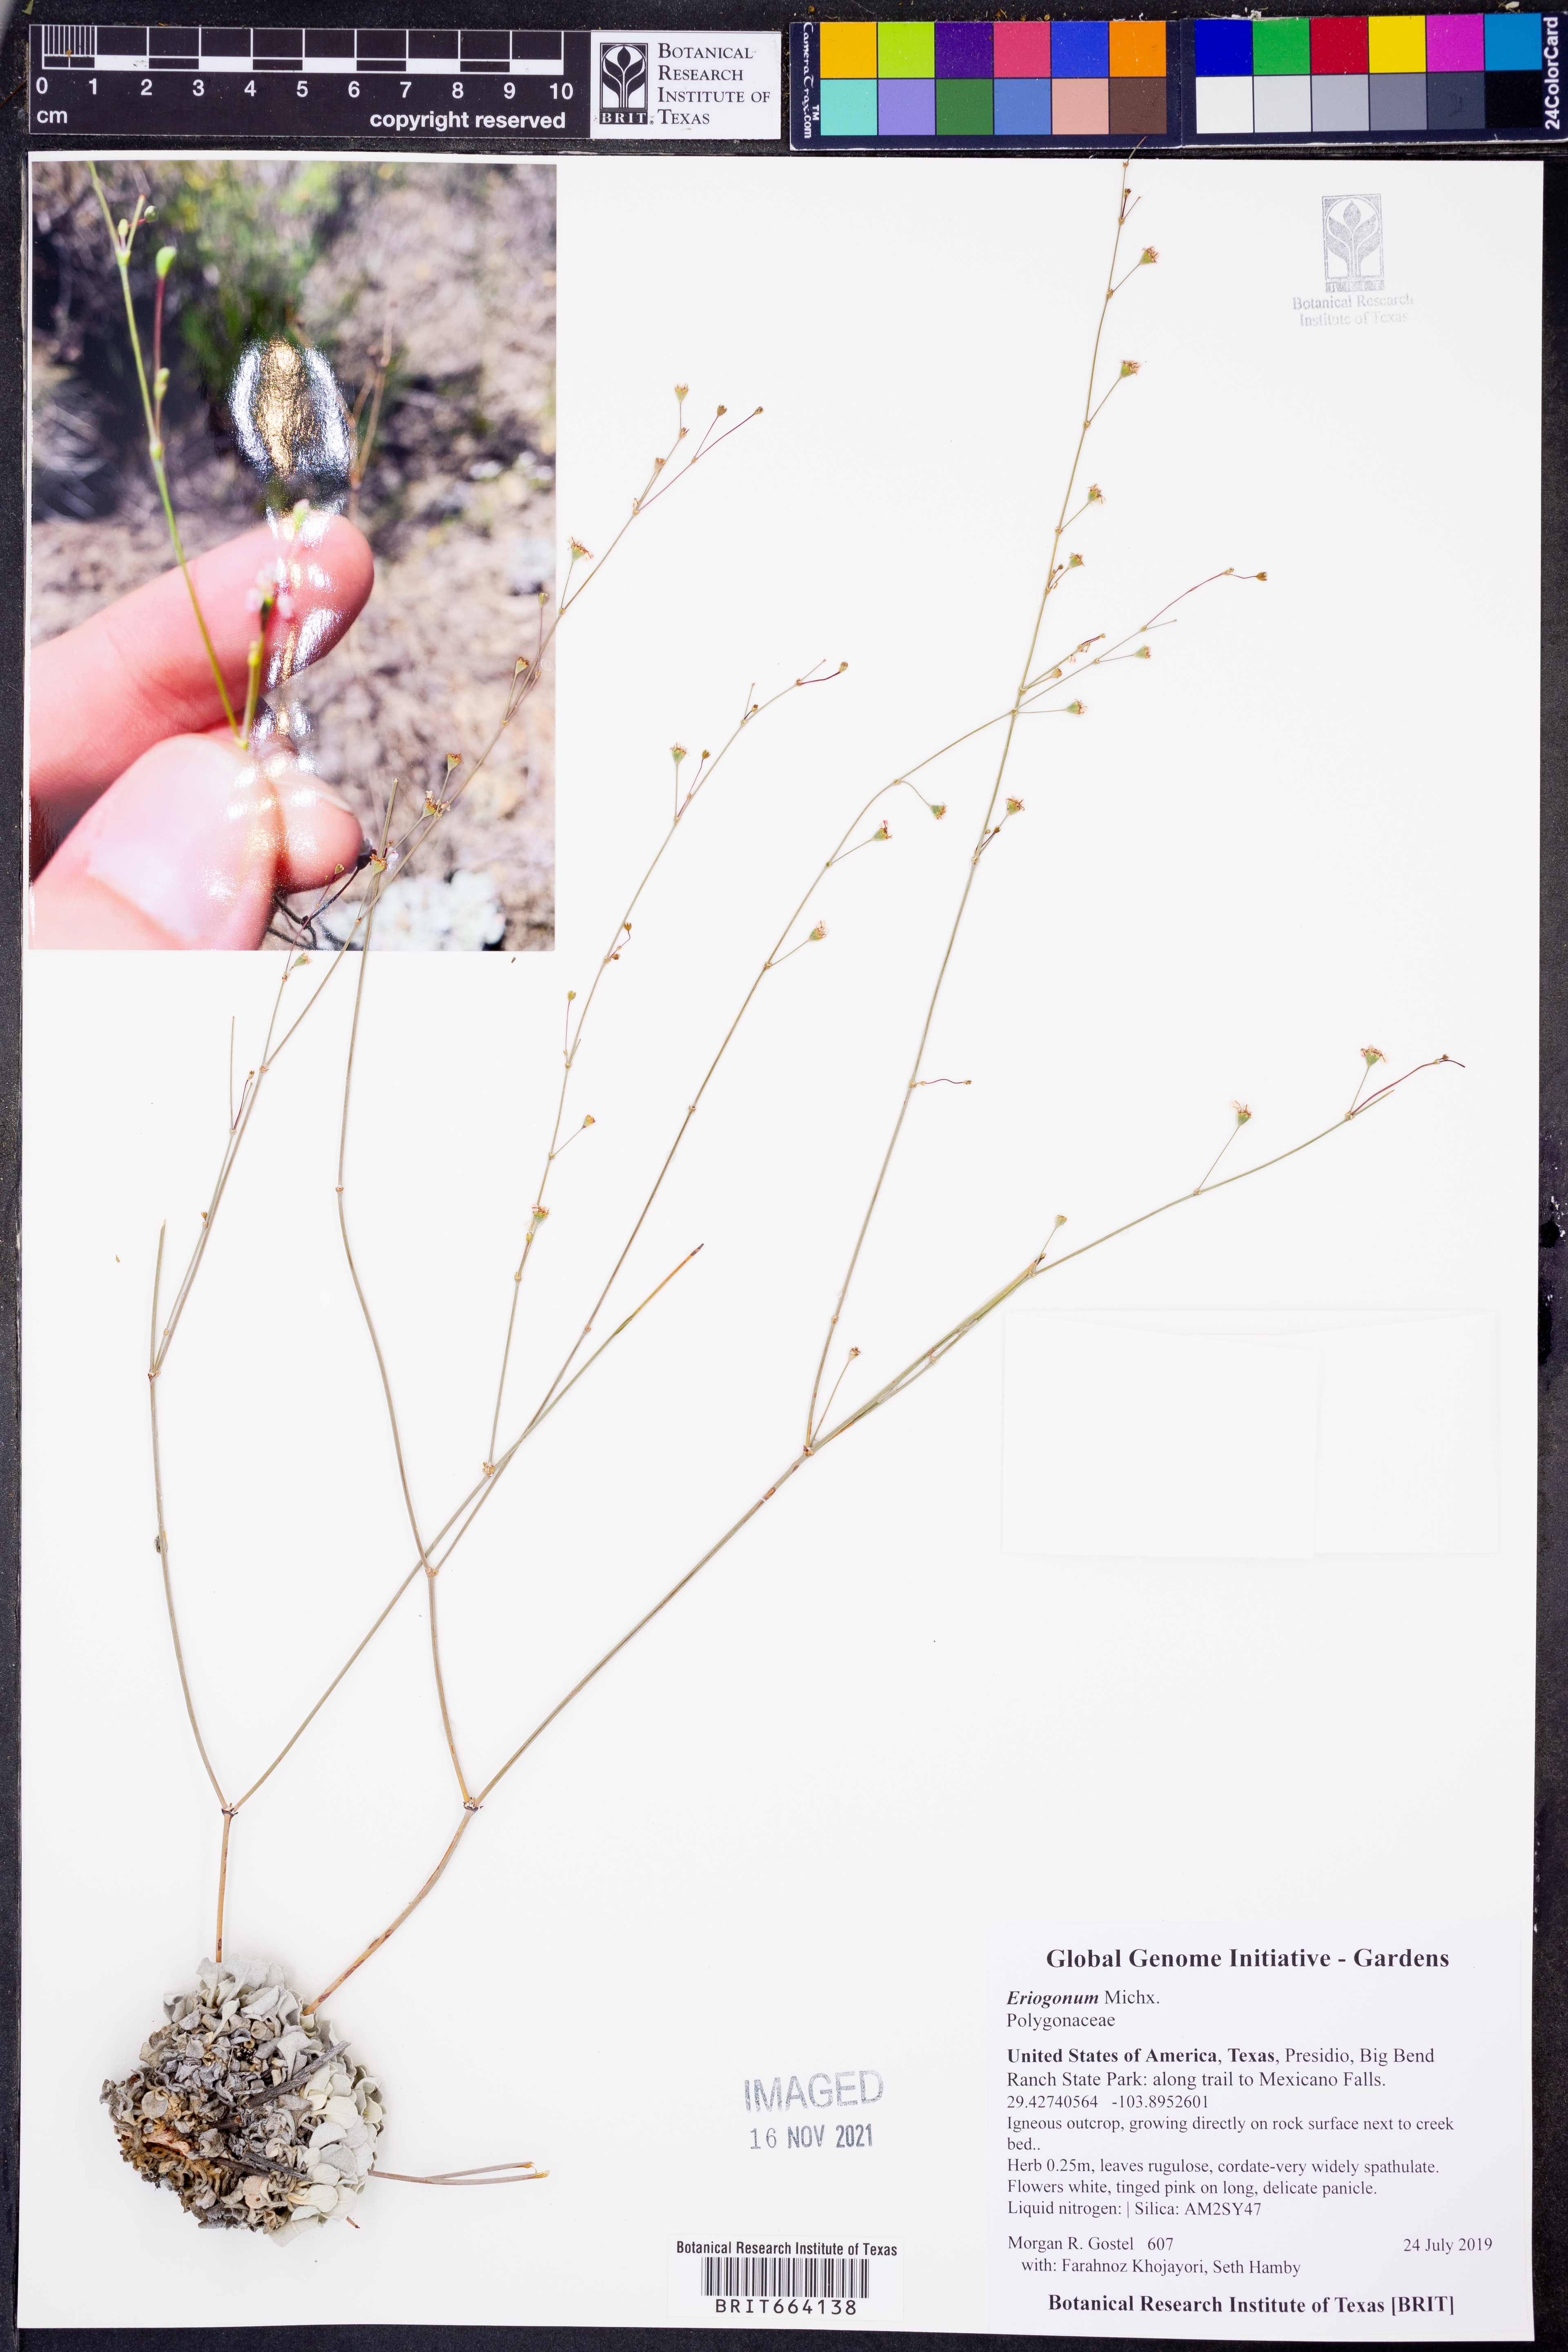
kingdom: Plantae
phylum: Tracheophyta
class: Magnoliopsida
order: Caryophyllales
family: Polygonaceae
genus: Eriogonum
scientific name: Eriogonum
